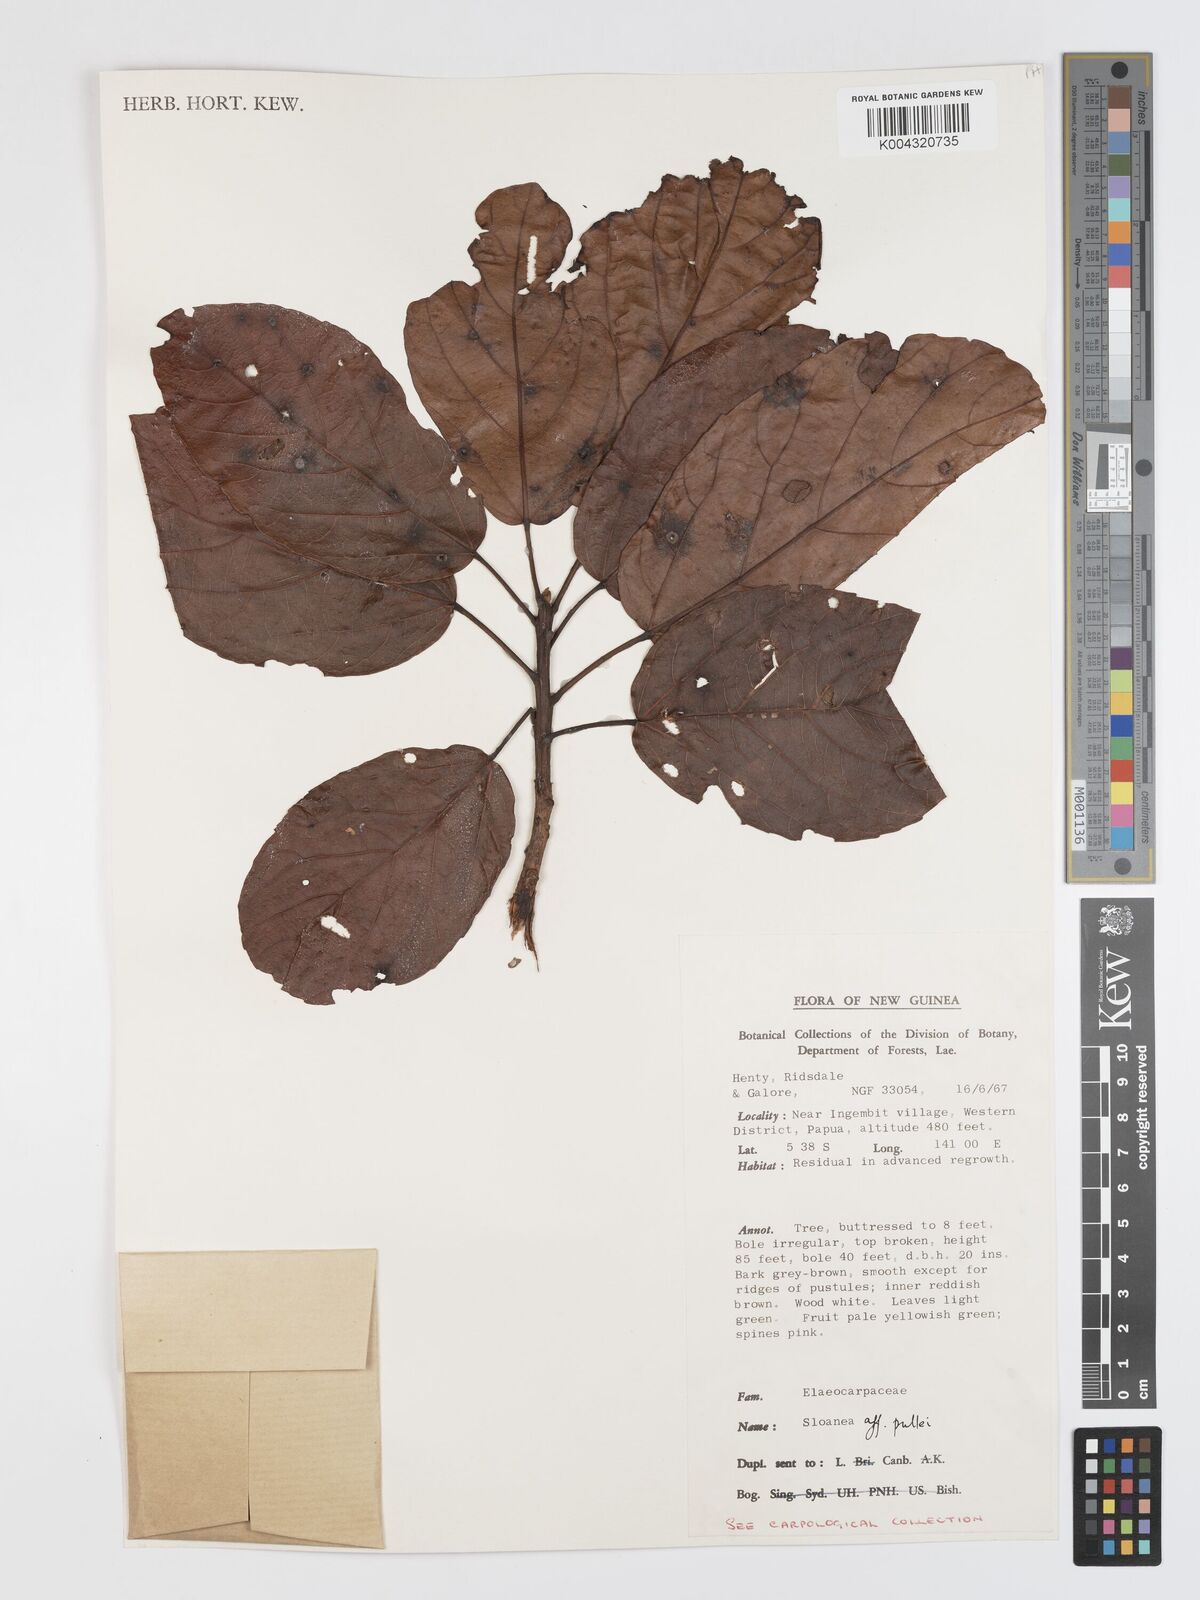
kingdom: Plantae
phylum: Tracheophyta
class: Magnoliopsida
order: Oxalidales
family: Elaeocarpaceae
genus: Sloanea
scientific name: Sloanea pullei
